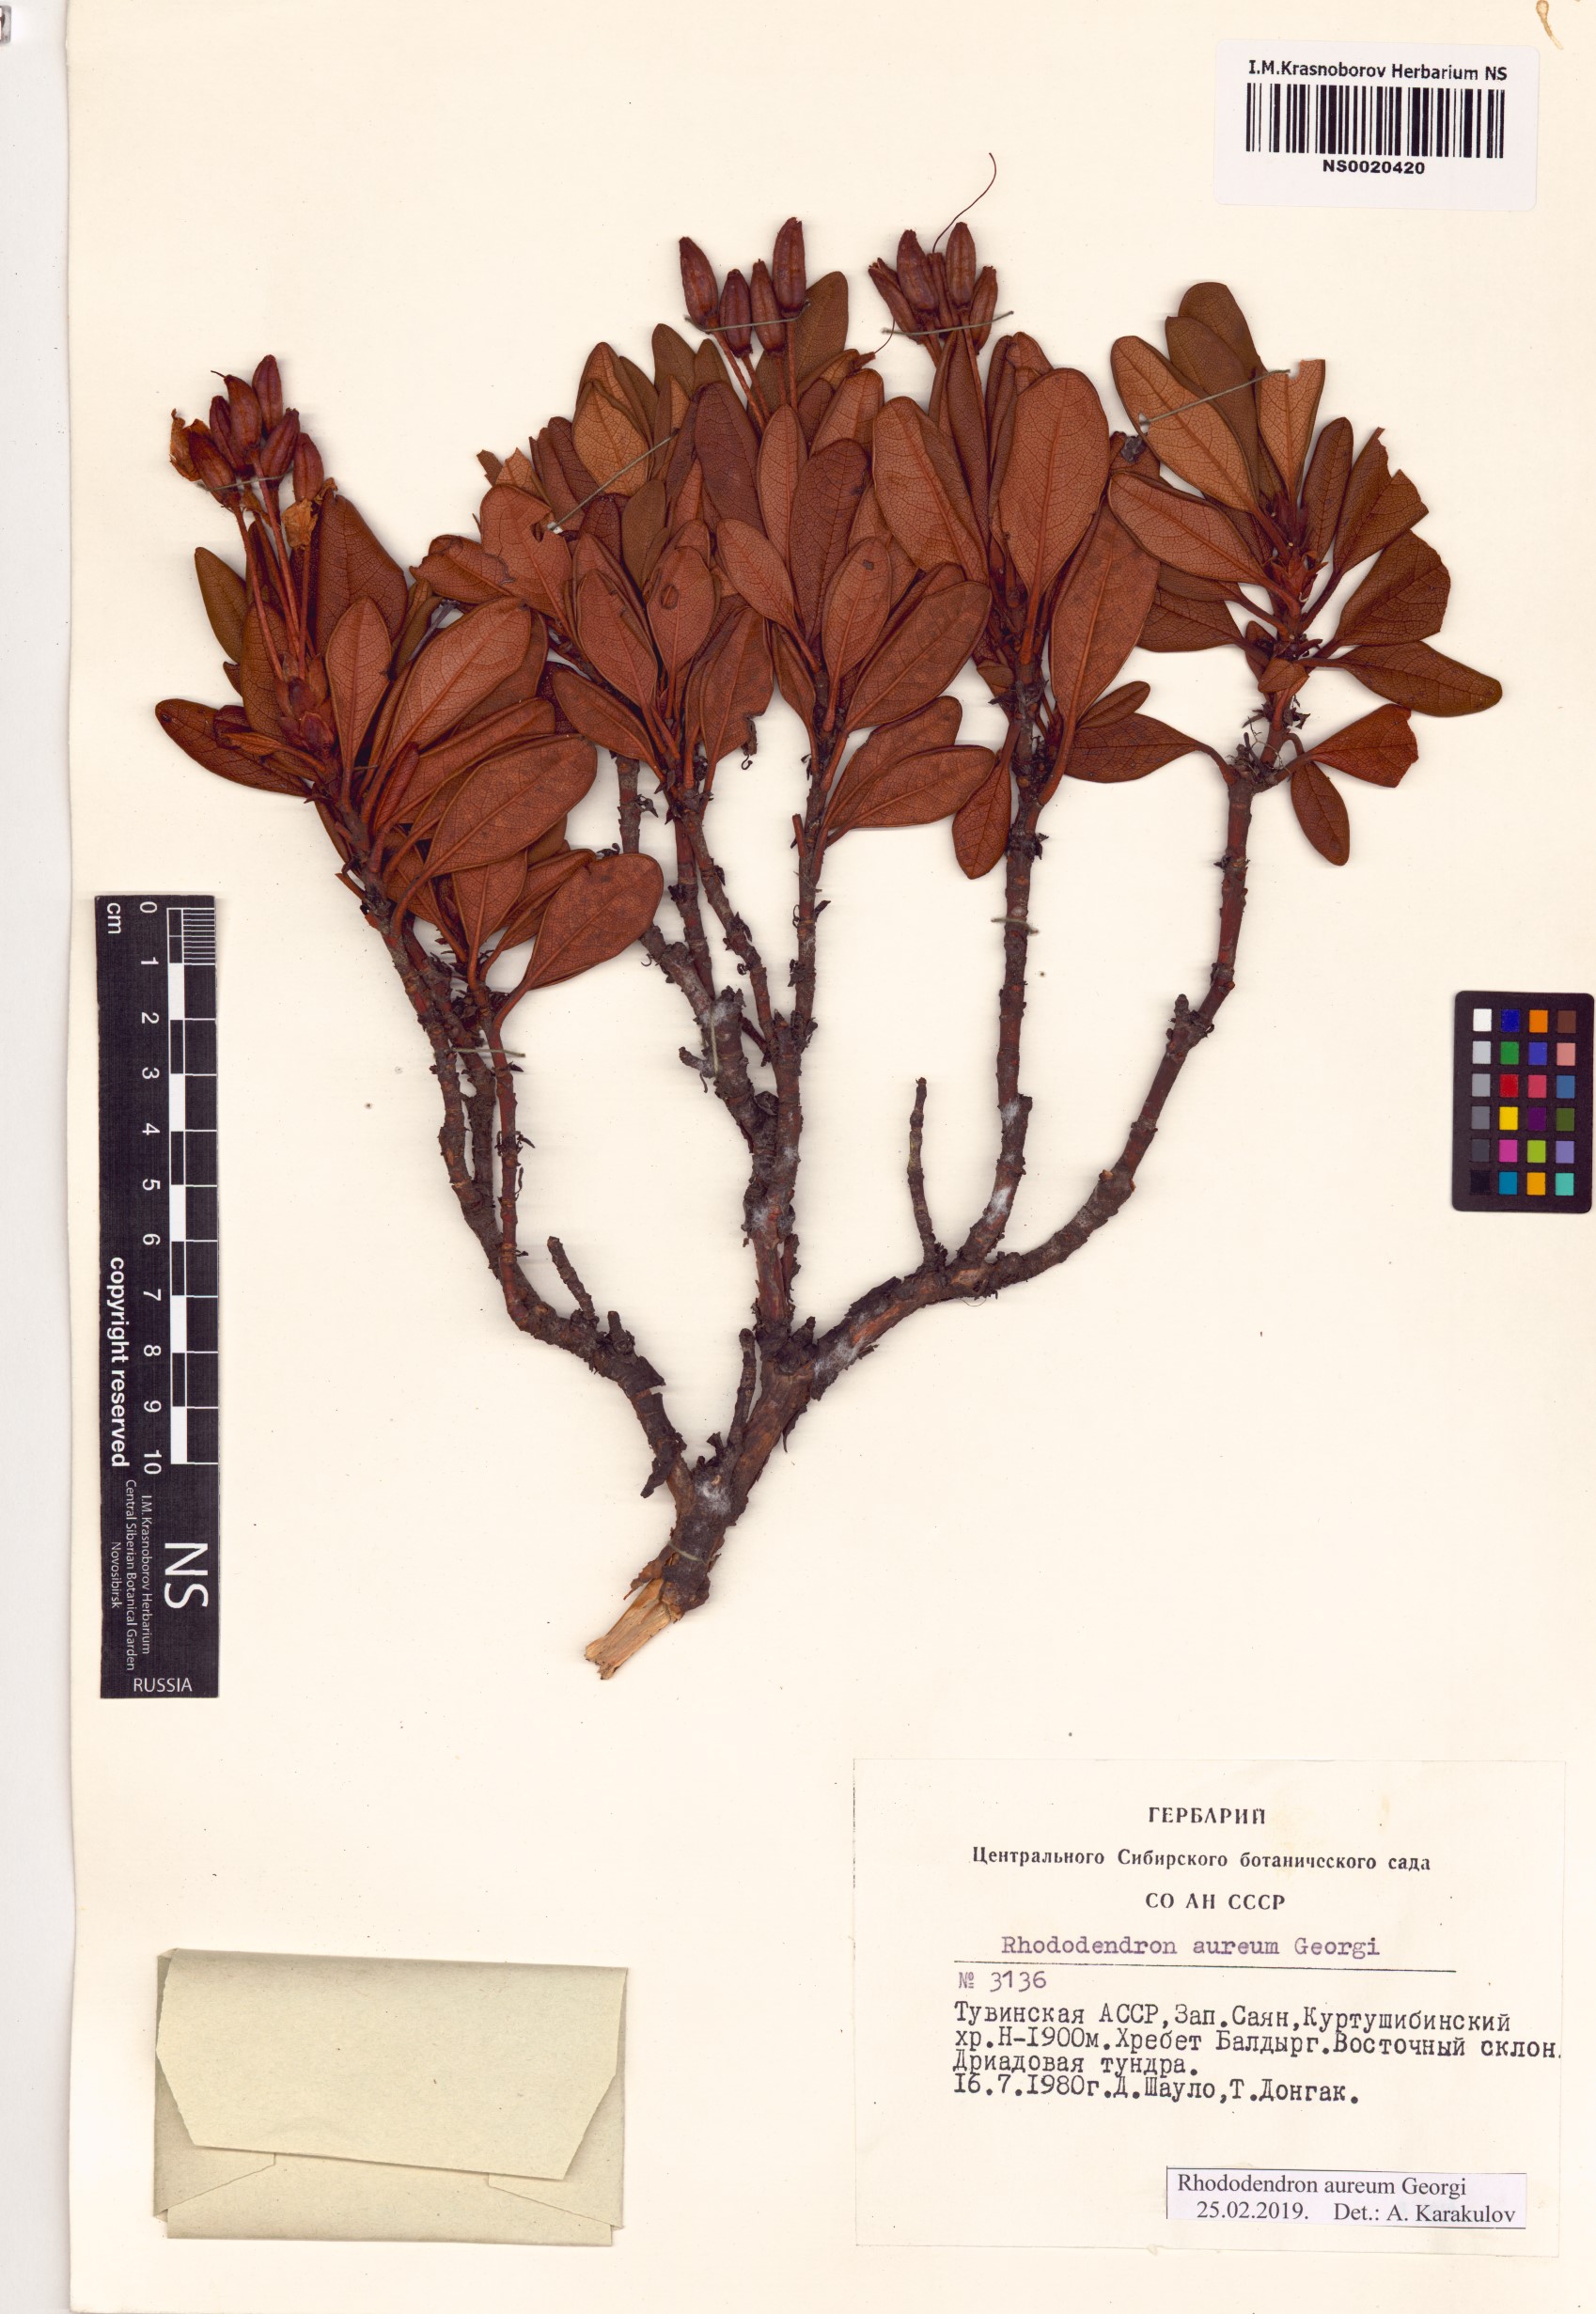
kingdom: Plantae
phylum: Tracheophyta
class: Magnoliopsida
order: Ericales
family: Ericaceae
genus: Rhododendron
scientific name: Rhododendron aureum
